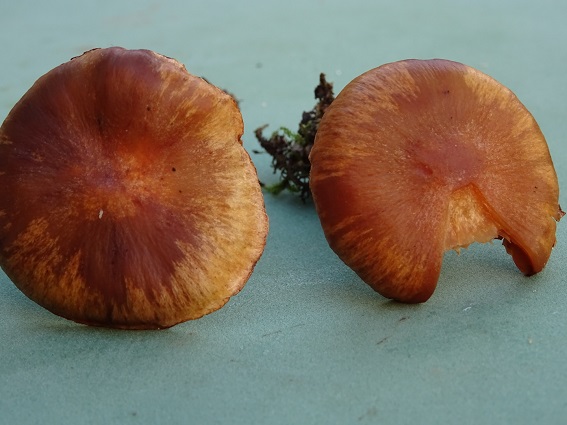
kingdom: Fungi
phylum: Basidiomycota
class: Agaricomycetes
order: Agaricales
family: Cortinariaceae
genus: Cortinarius
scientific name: Cortinarius hinnuleus
